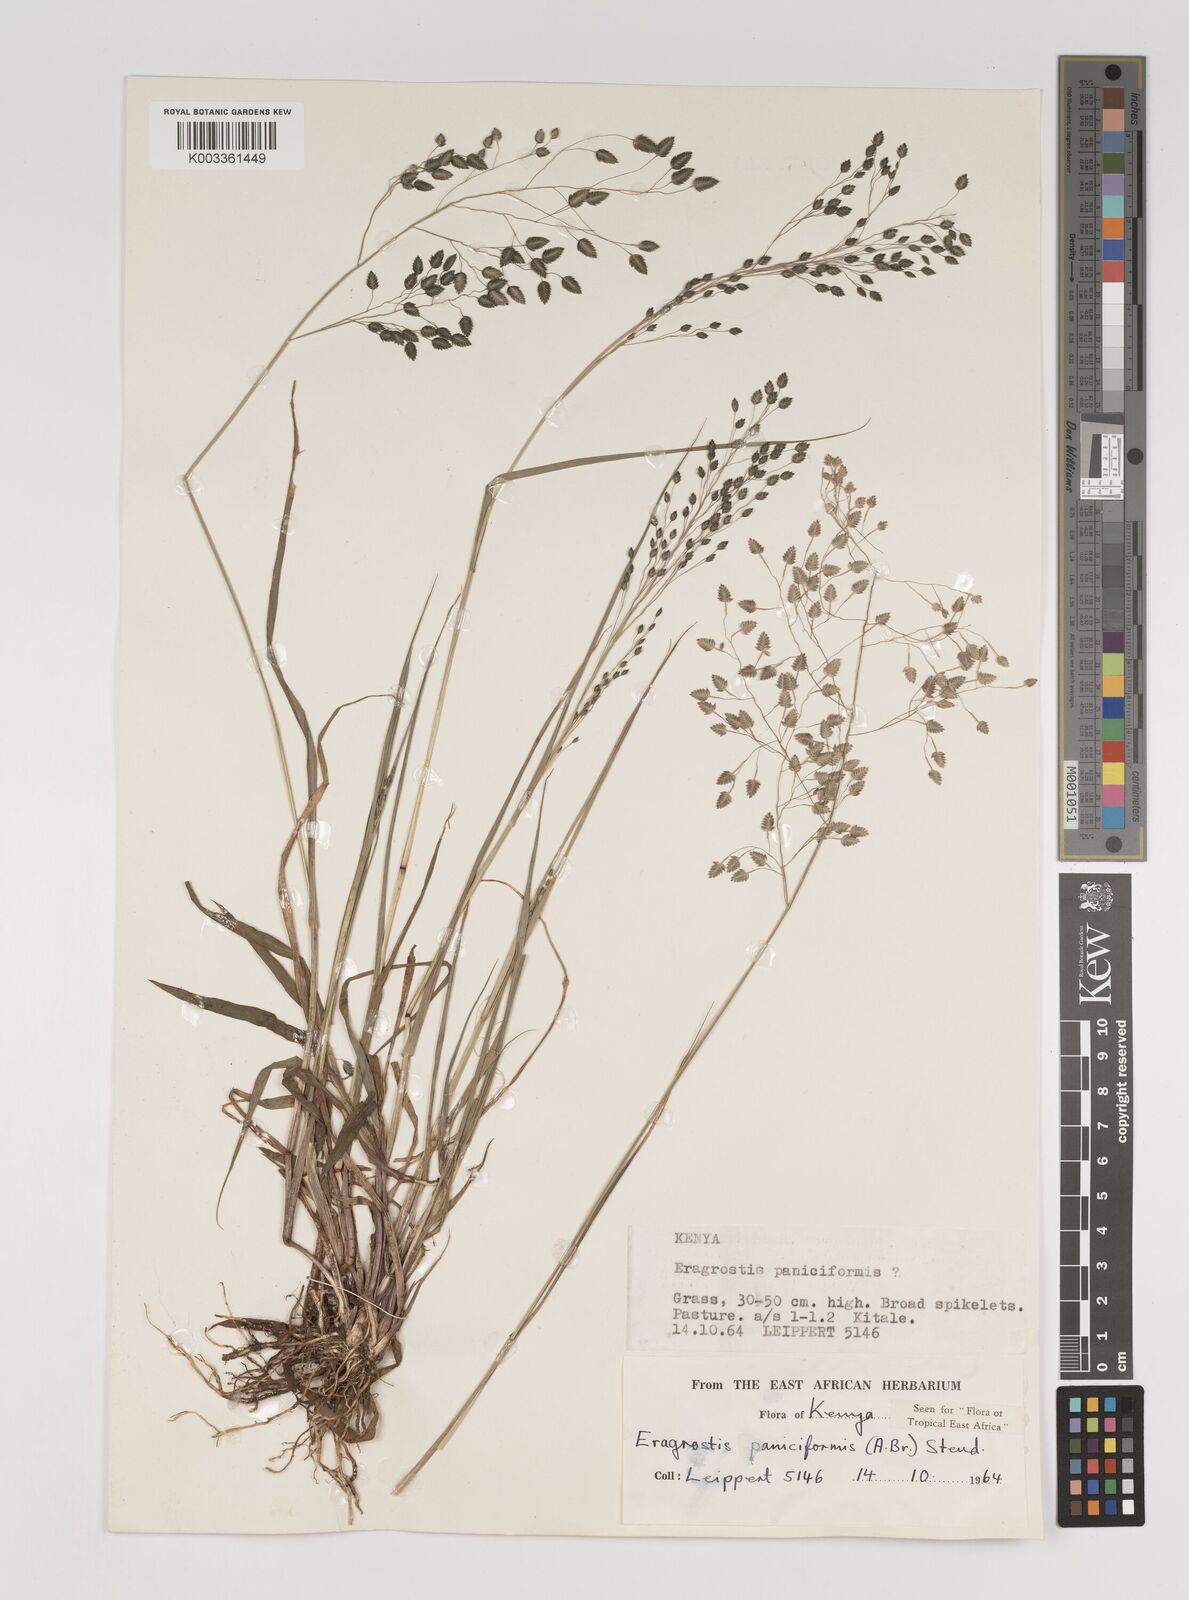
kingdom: Plantae
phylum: Tracheophyta
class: Liliopsida
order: Poales
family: Poaceae
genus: Eragrostis
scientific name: Eragrostis paniciformis
